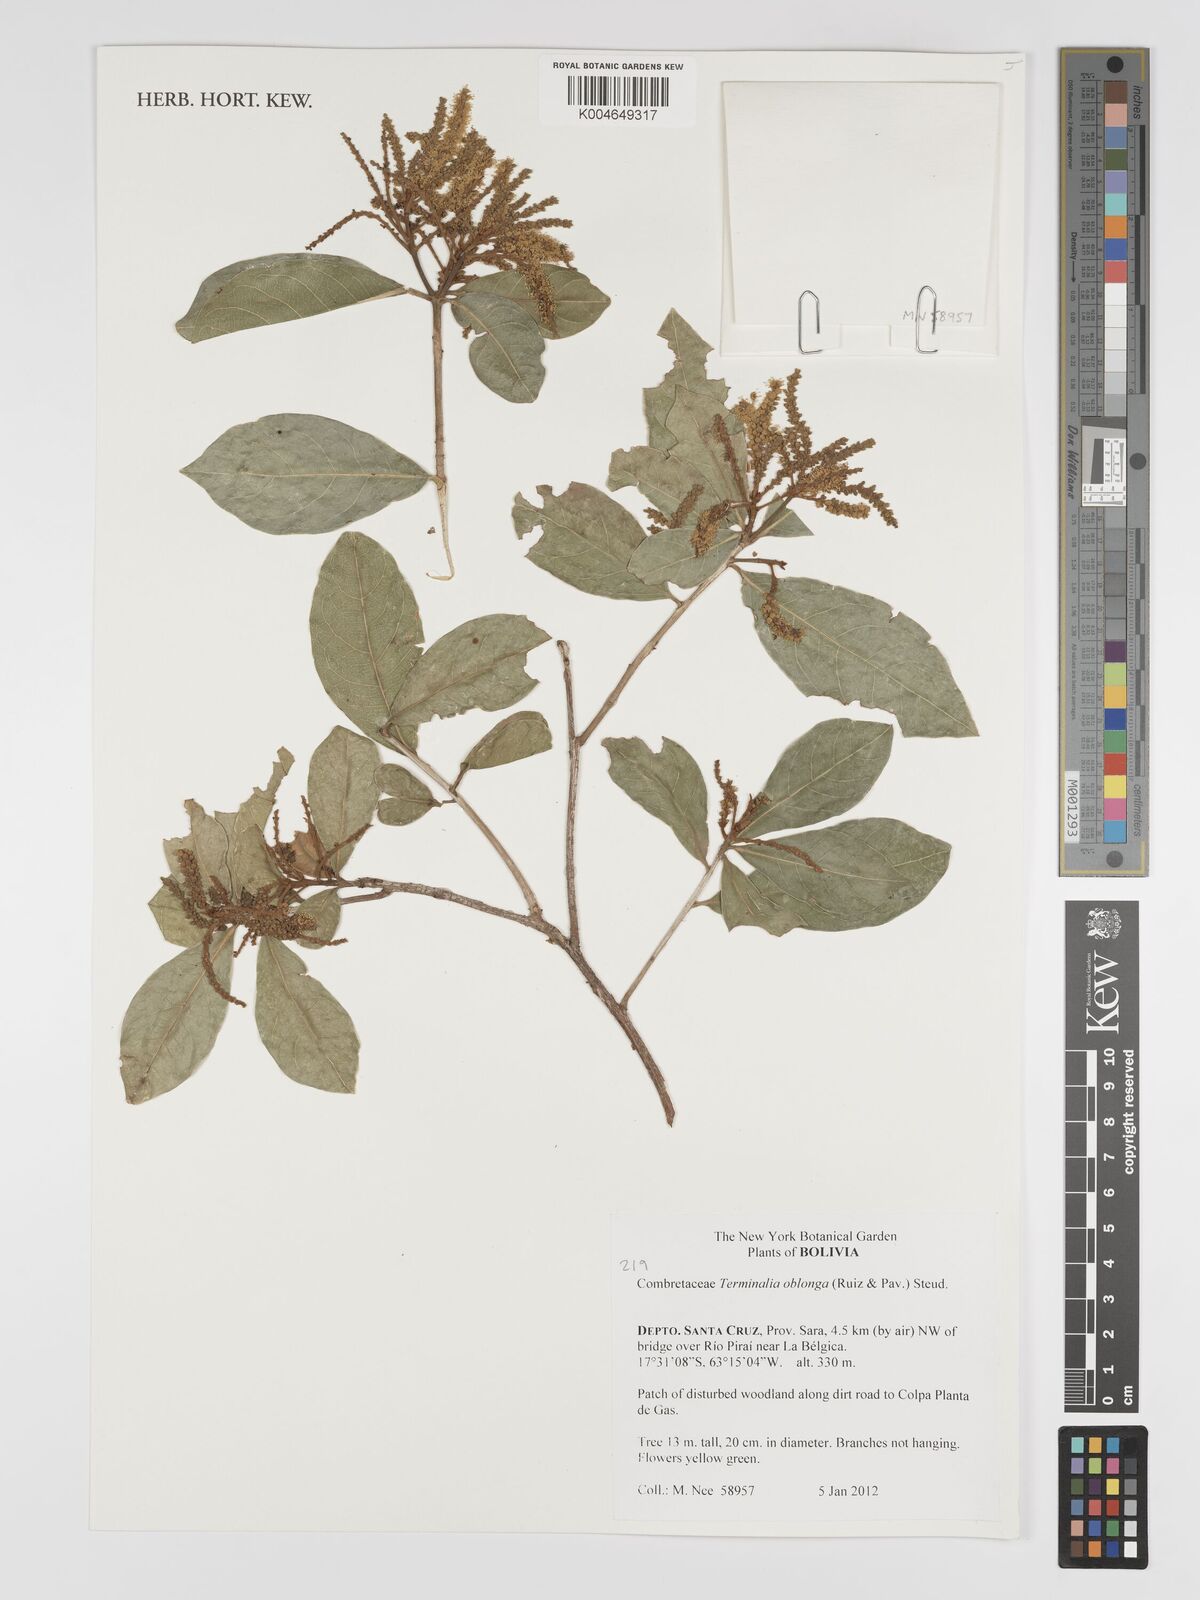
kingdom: Plantae
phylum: Tracheophyta
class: Magnoliopsida
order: Myrtales
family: Combretaceae
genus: Terminalia
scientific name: Terminalia oblonga
